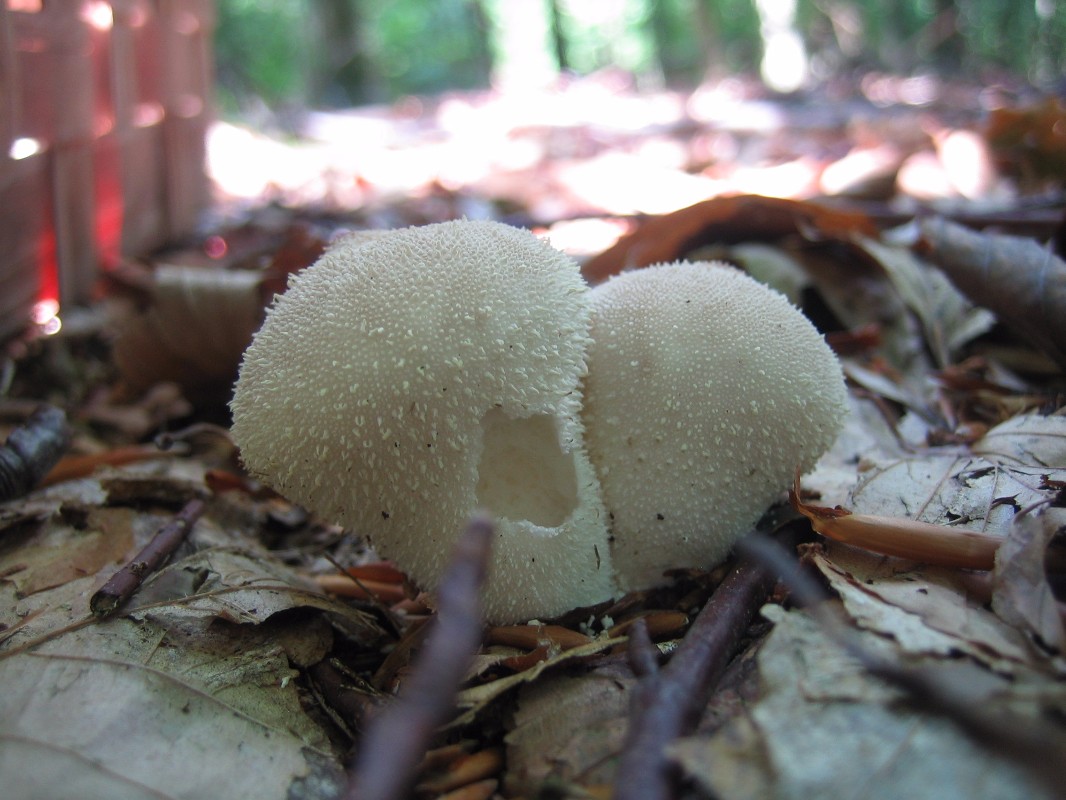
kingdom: Fungi
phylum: Basidiomycota
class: Agaricomycetes
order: Agaricales
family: Lycoperdaceae
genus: Lycoperdon
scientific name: Lycoperdon perlatum
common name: krystal-støvbold
